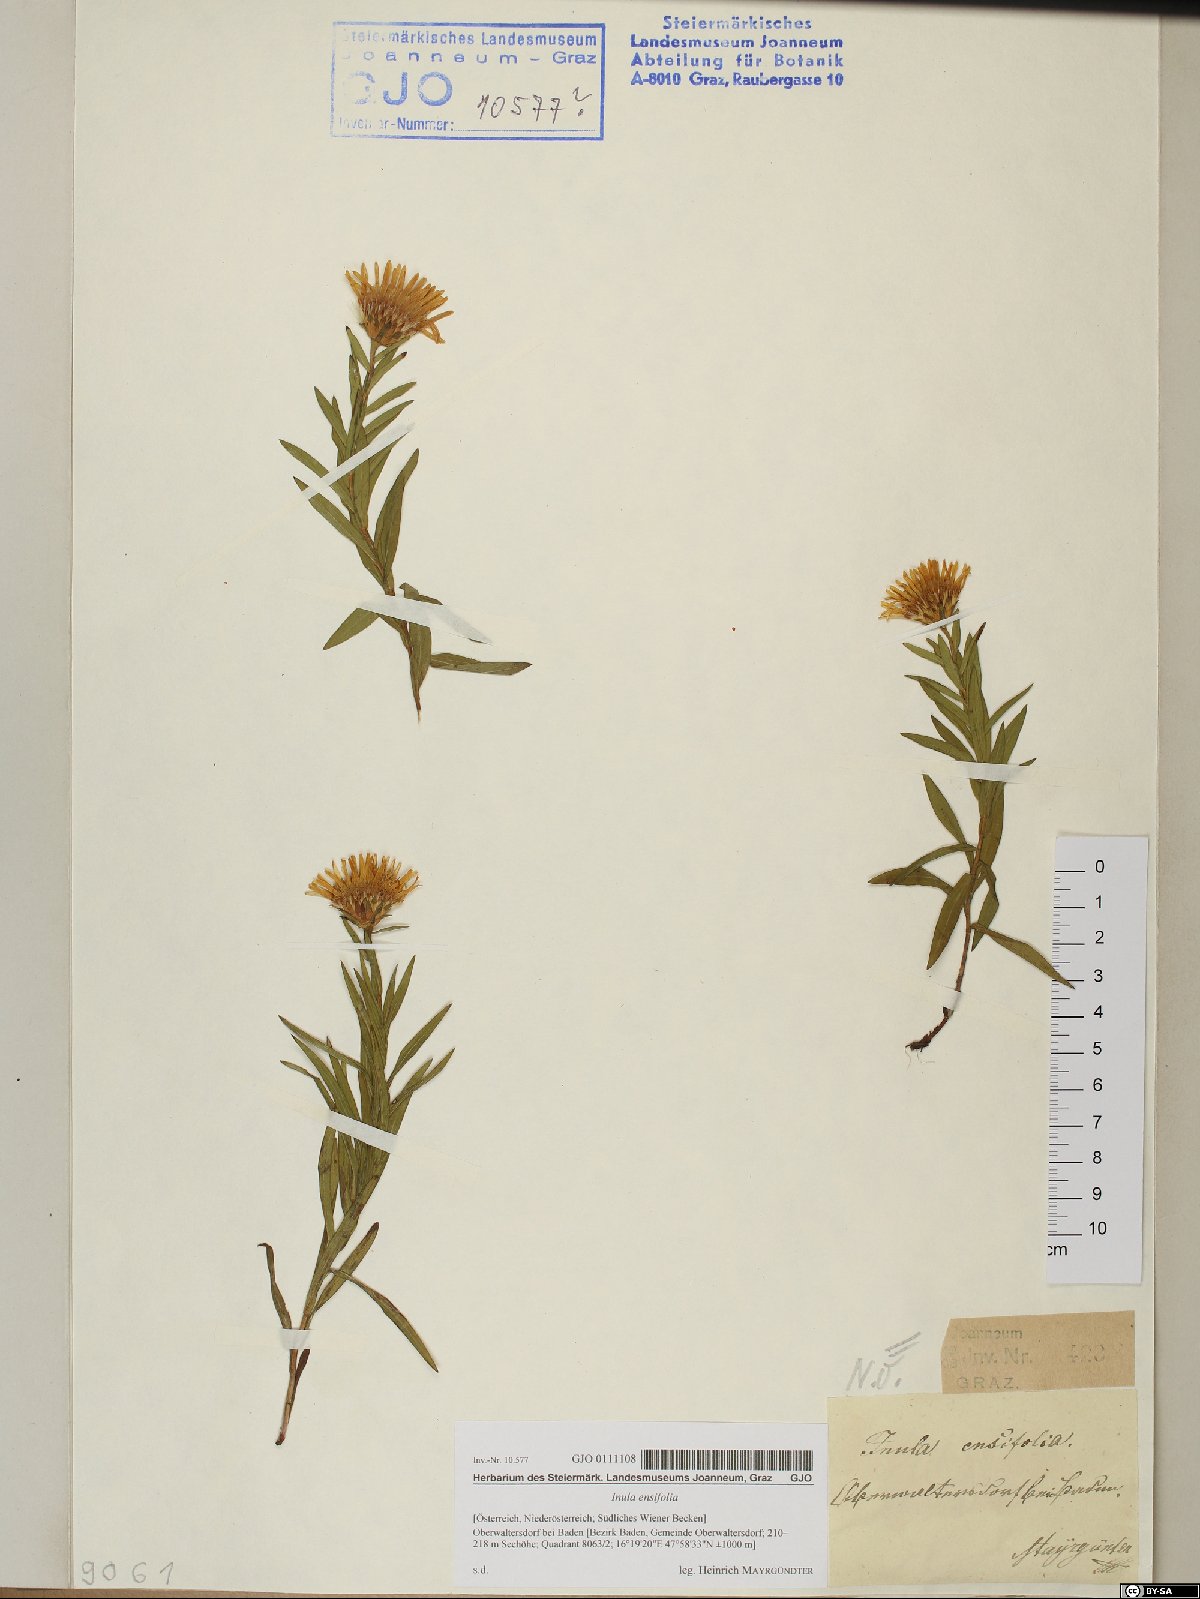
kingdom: Plantae
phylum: Tracheophyta
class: Magnoliopsida
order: Asterales
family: Asteraceae
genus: Pentanema
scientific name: Pentanema ensifolium
